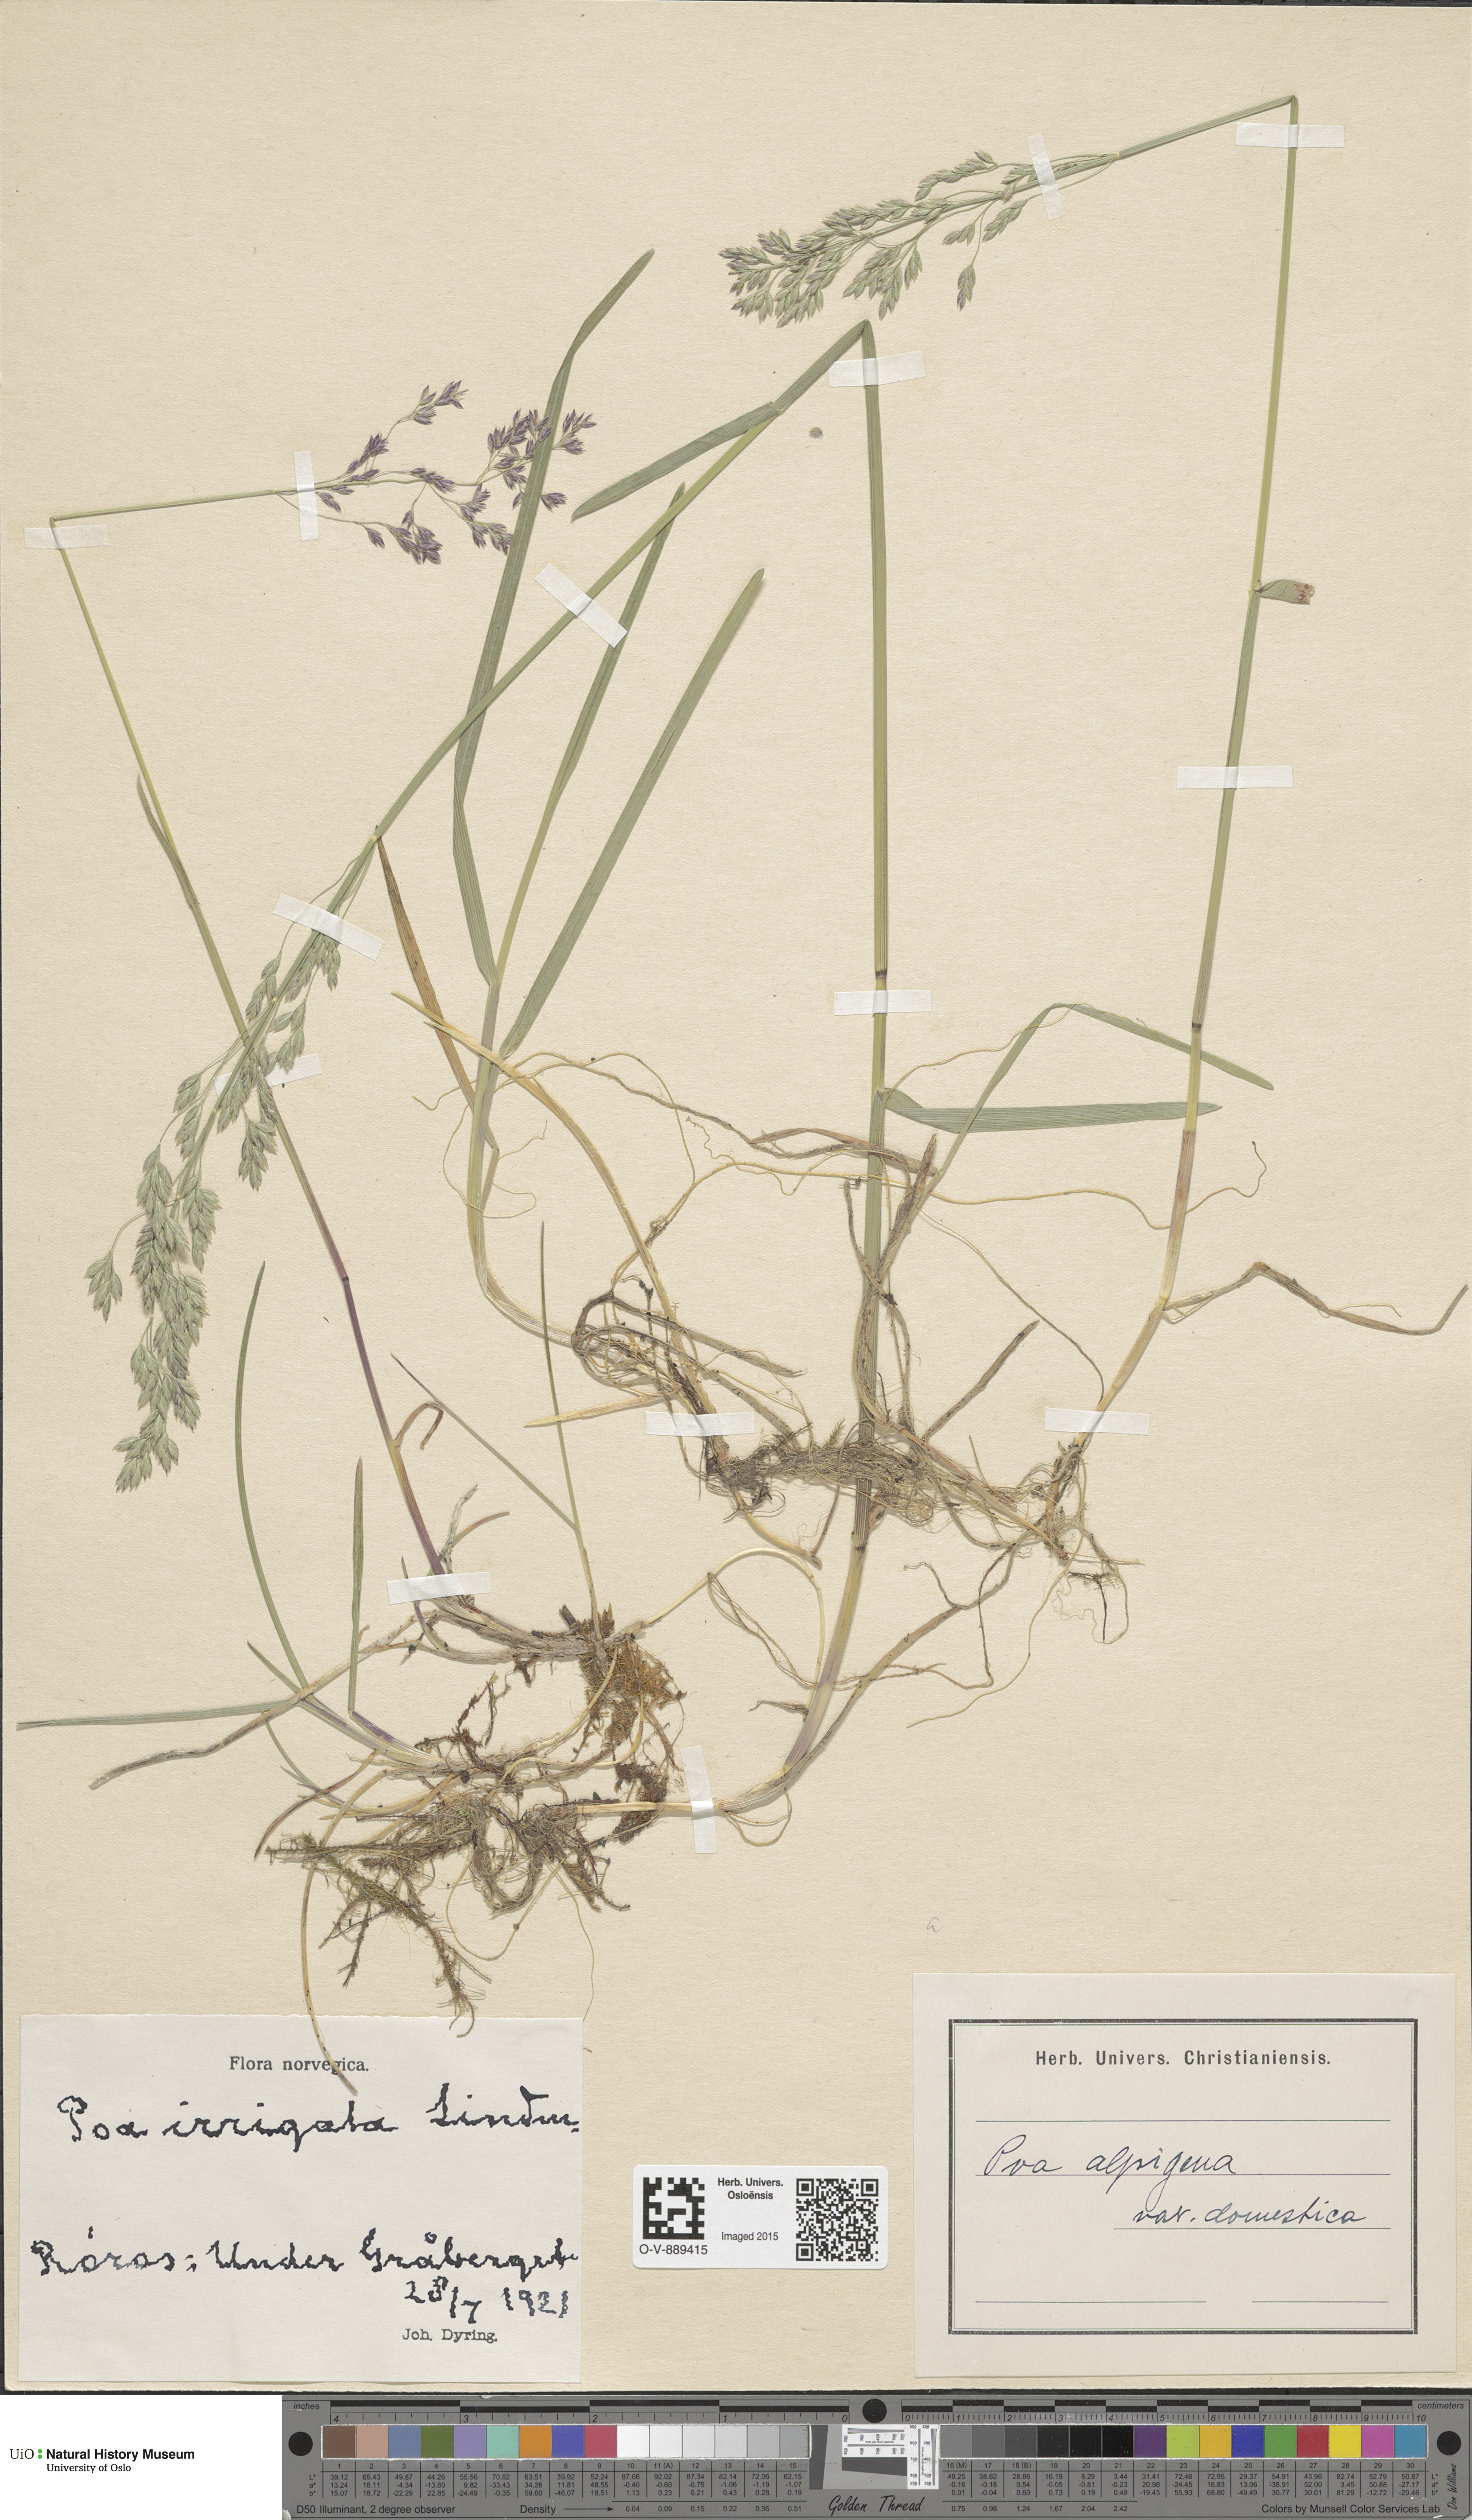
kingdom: Plantae
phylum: Tracheophyta
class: Liliopsida
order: Poales
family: Poaceae
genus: Poa
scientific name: Poa pratensis
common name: Kentucky bluegrass
